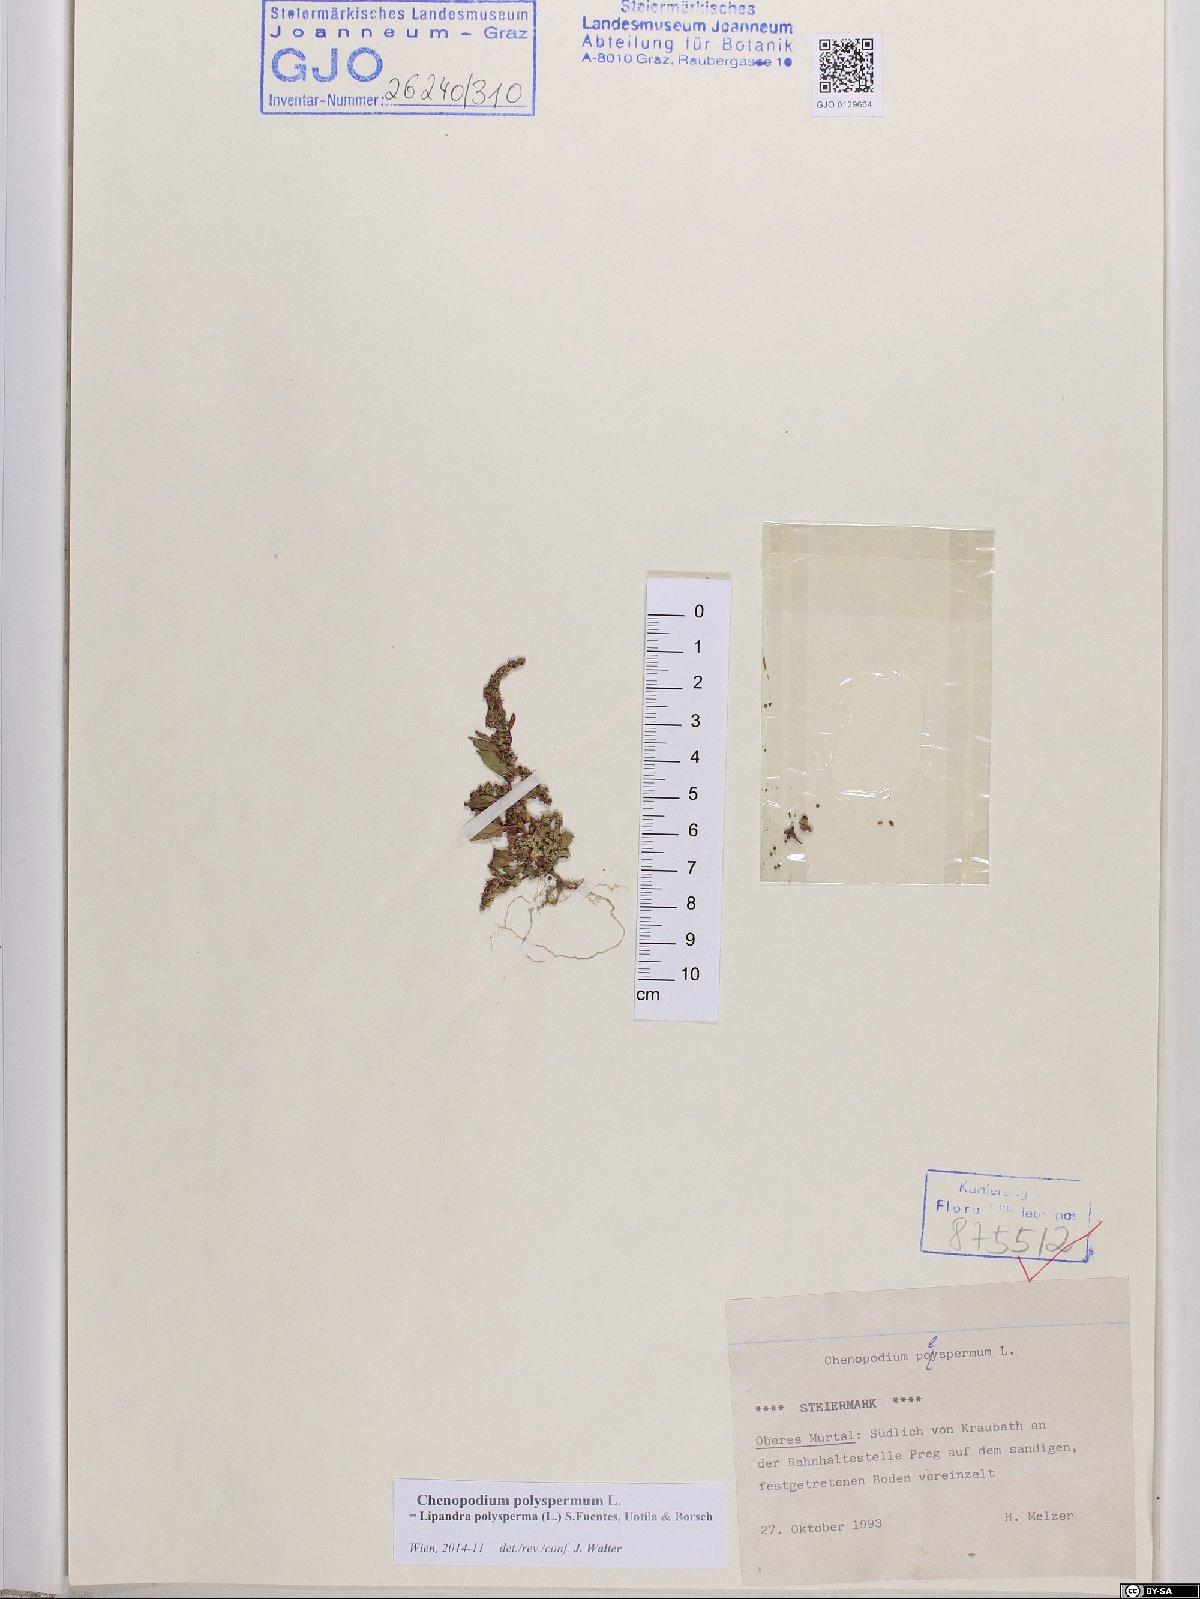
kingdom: Plantae
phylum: Tracheophyta
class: Magnoliopsida
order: Caryophyllales
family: Amaranthaceae
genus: Lipandra
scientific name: Lipandra polysperma
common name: Many-seed goosefoot
